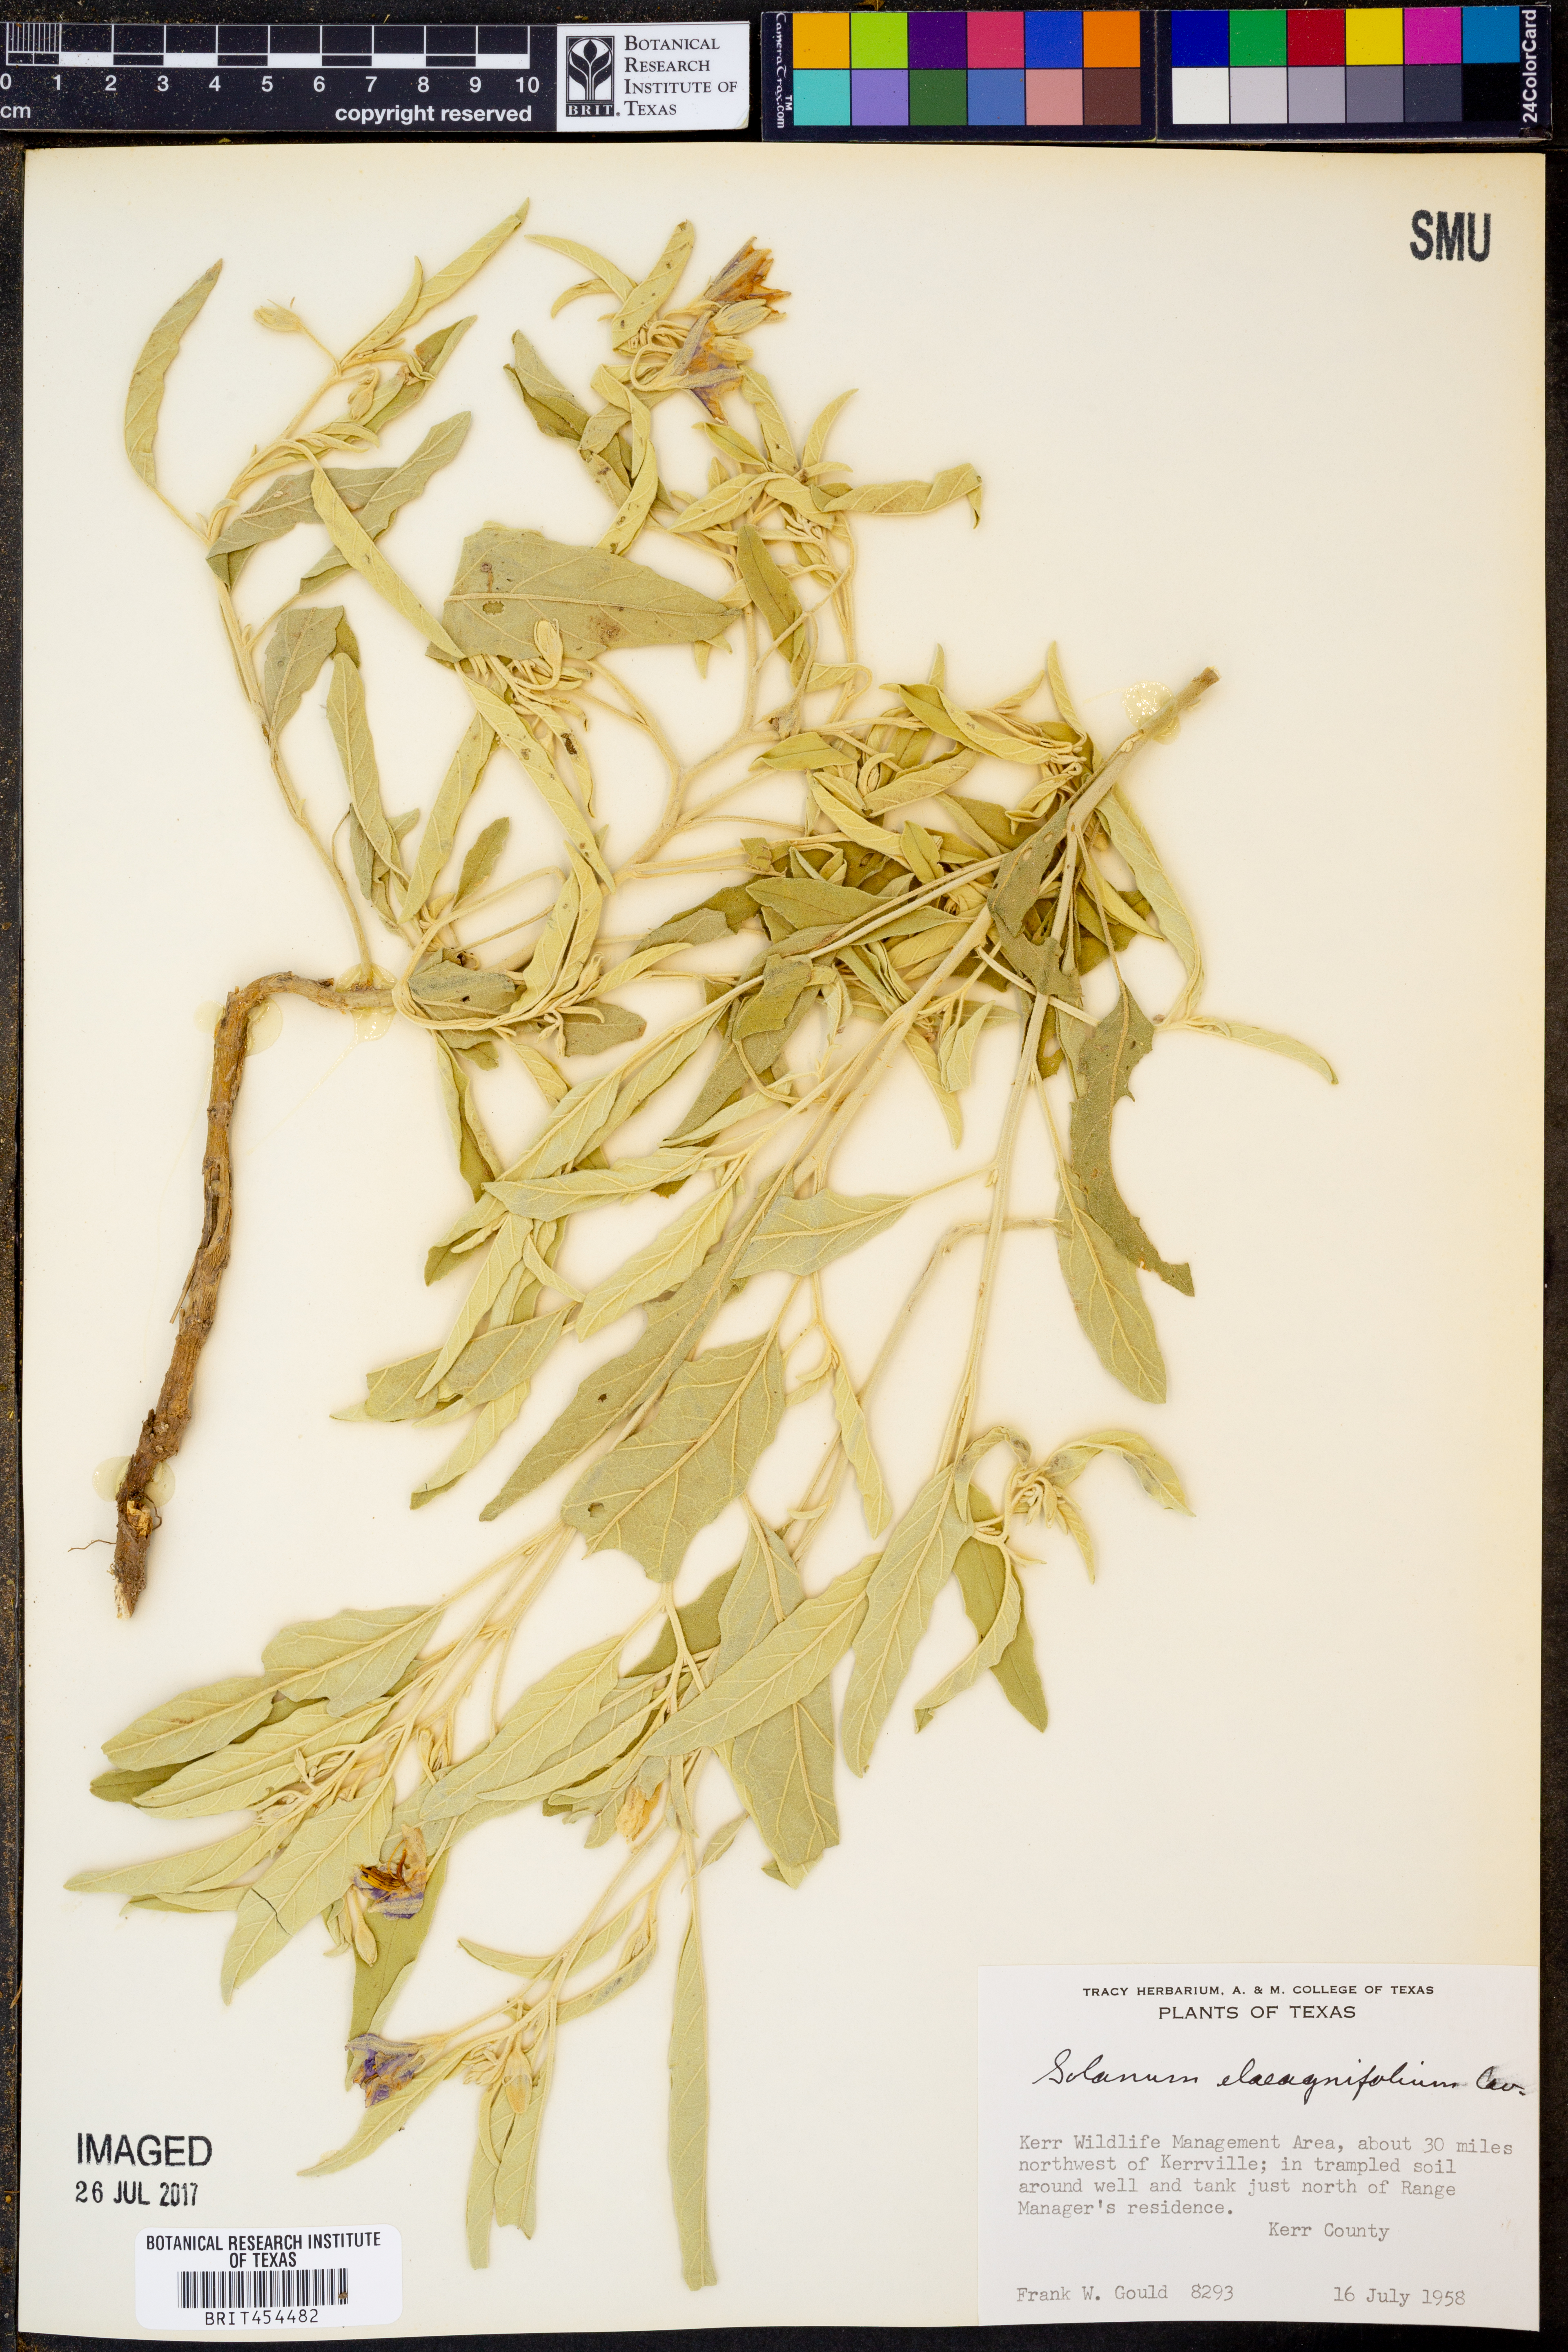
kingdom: Plantae
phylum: Tracheophyta
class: Magnoliopsida
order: Solanales
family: Solanaceae
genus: Solanum
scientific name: Solanum elaeagnifolium
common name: Silverleaf nightshade
